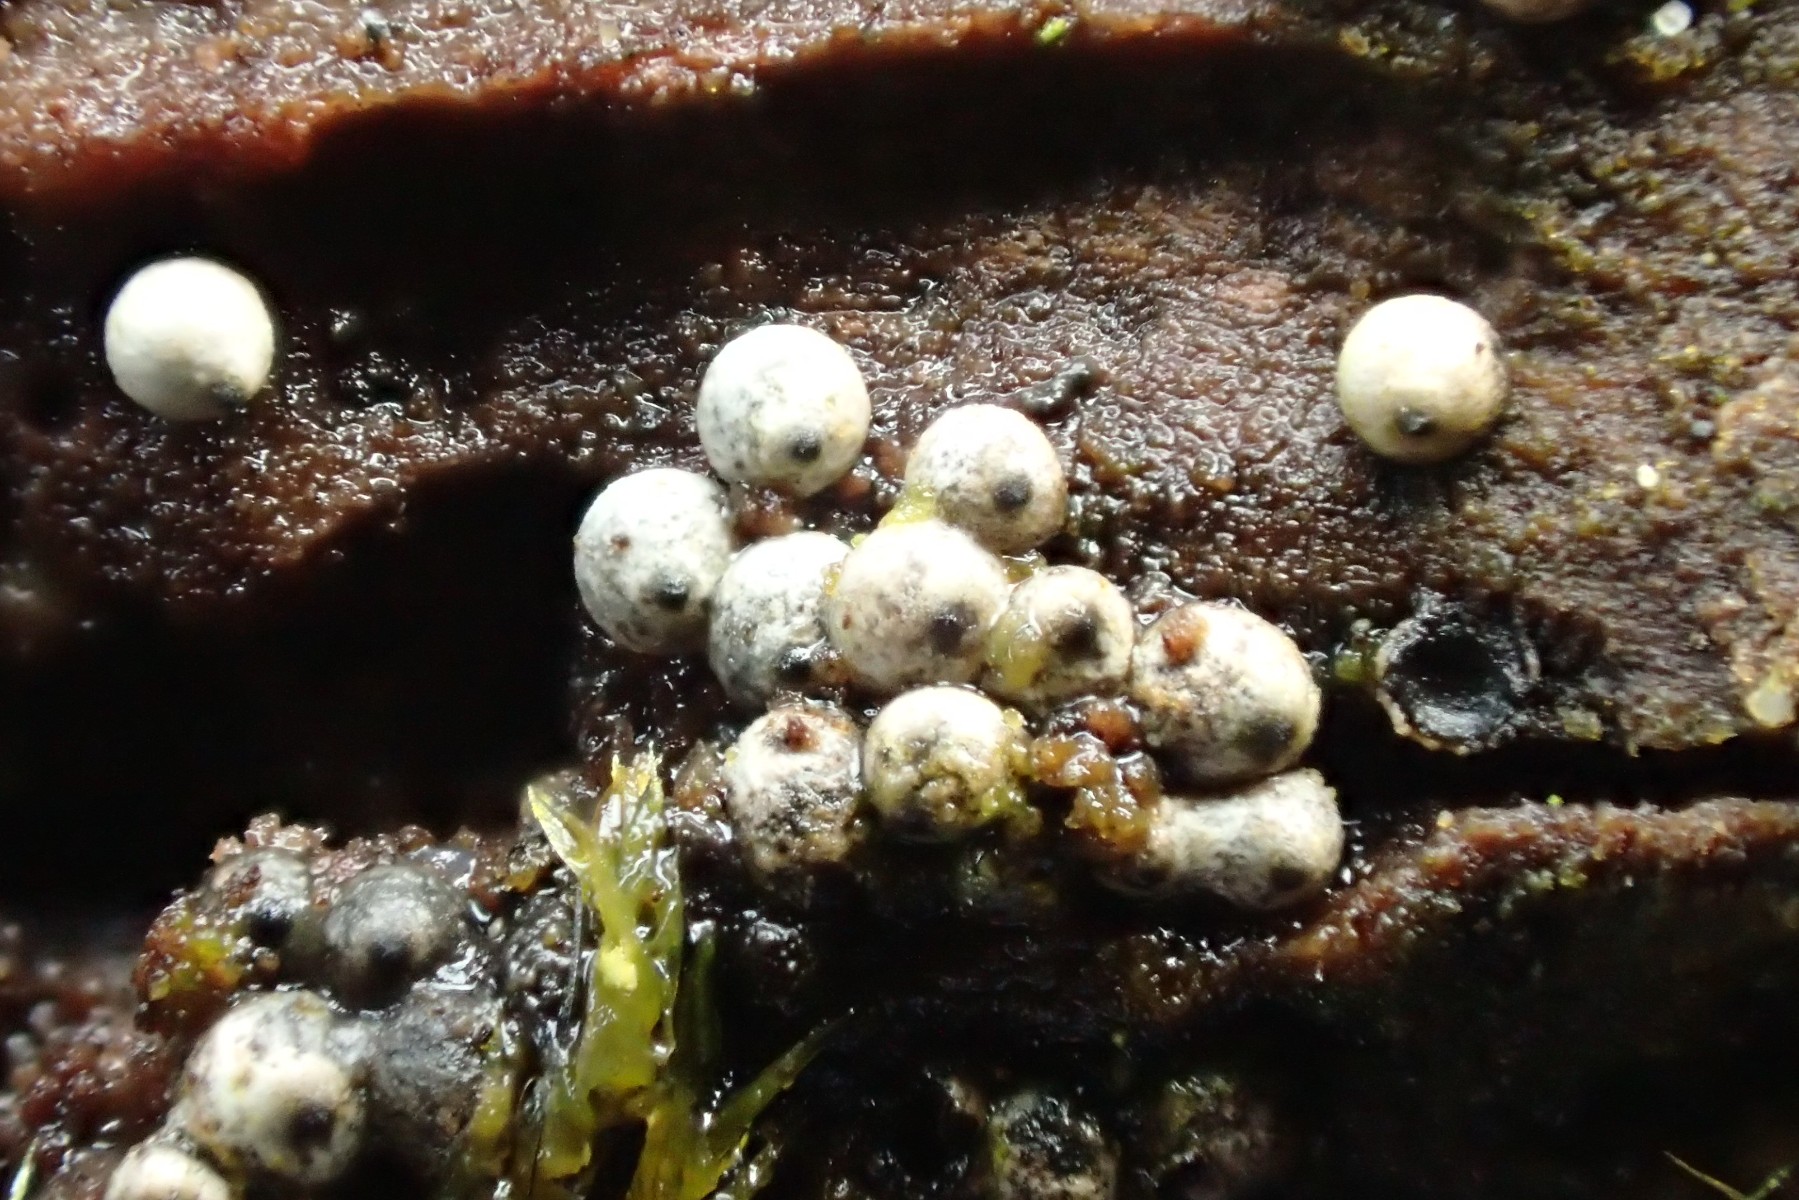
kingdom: Fungi
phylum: Ascomycota
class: Sordariomycetes
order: Sordariales
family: Lasiosphaeriaceae
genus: Lasiosphaeria
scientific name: Lasiosphaeria ovina
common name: fåre-kernesvamp
